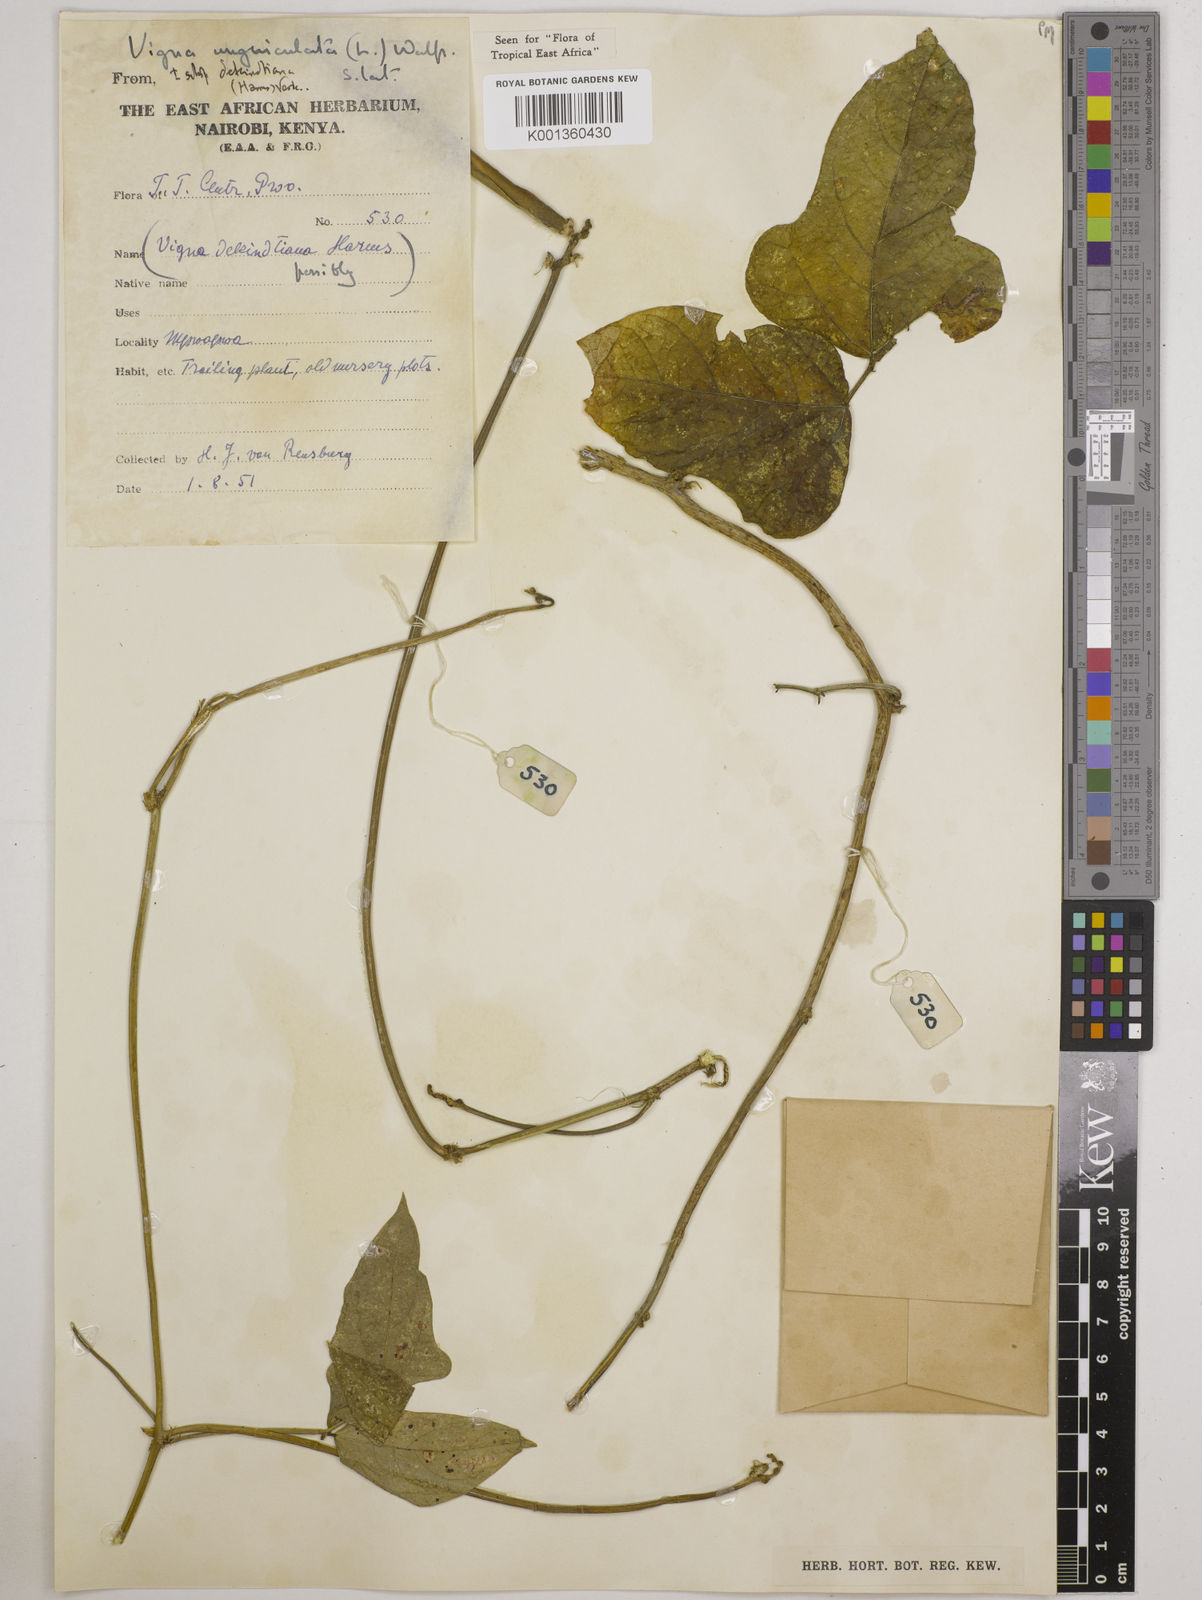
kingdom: Plantae
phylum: Tracheophyta
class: Magnoliopsida
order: Fabales
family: Fabaceae
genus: Vigna
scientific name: Vigna
